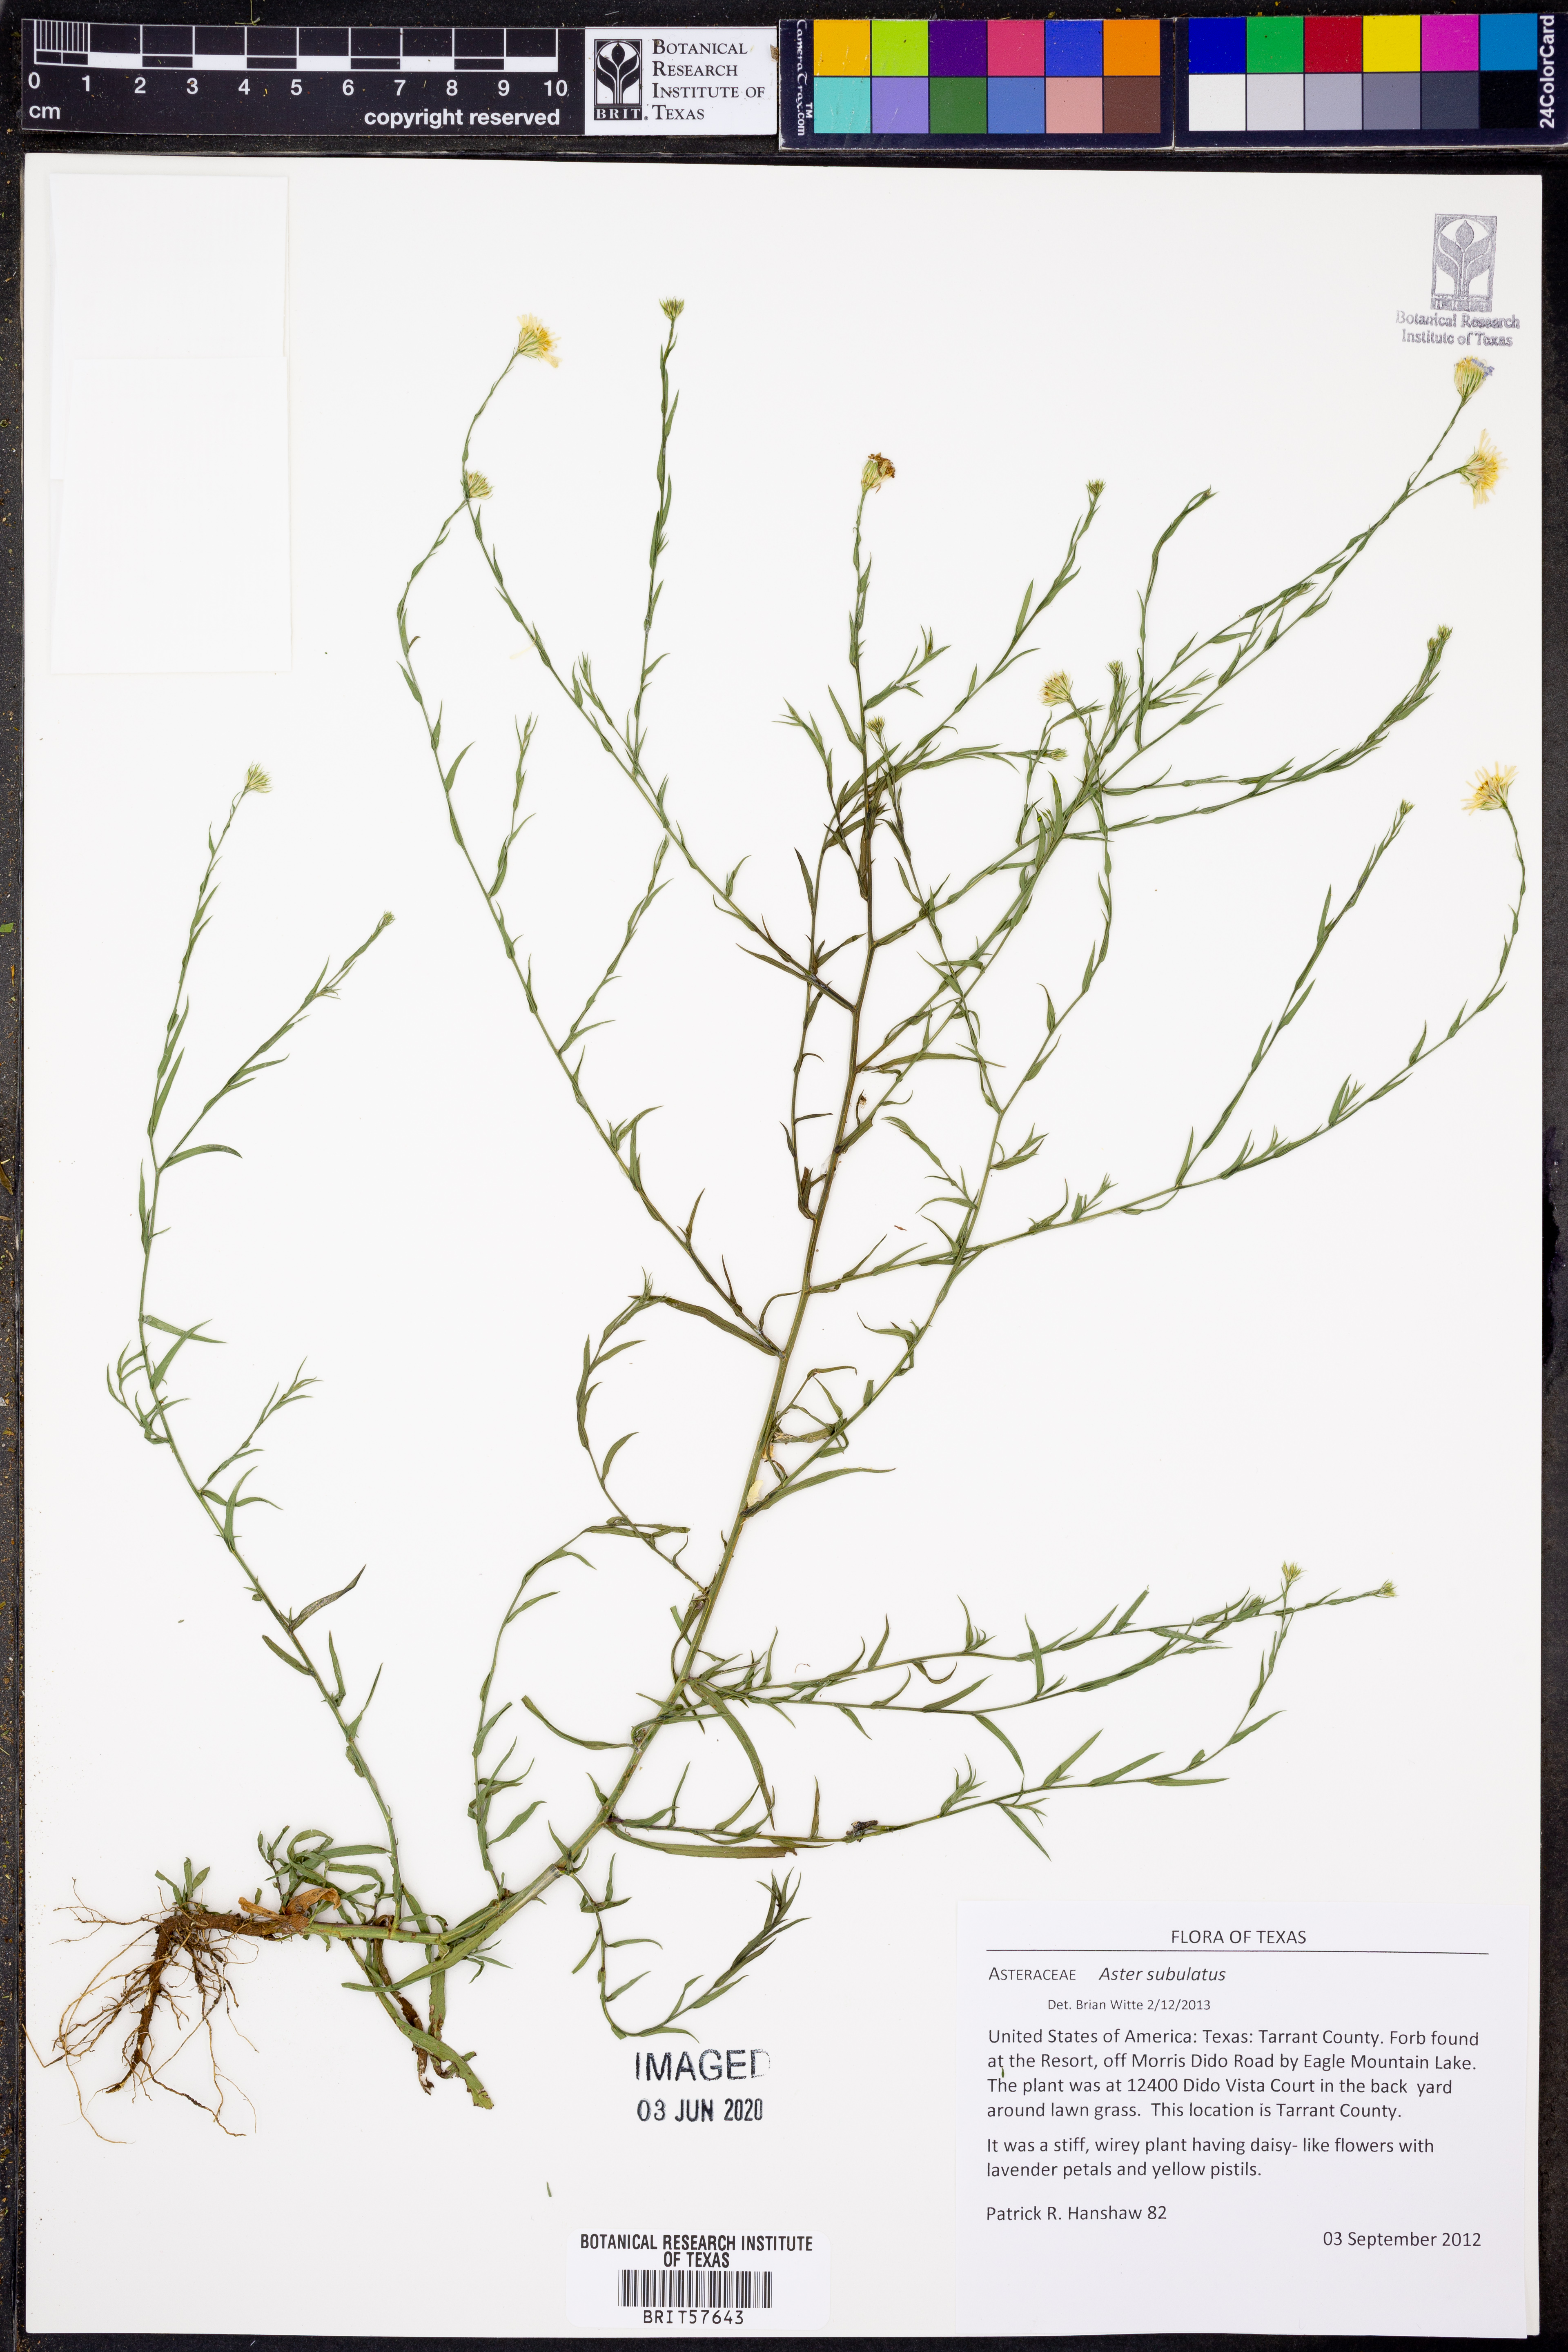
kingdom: Plantae
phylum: Tracheophyta
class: Magnoliopsida
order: Asterales
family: Asteraceae
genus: Symphyotrichum
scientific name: Symphyotrichum subulatum
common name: Annual saltmarsh aster
